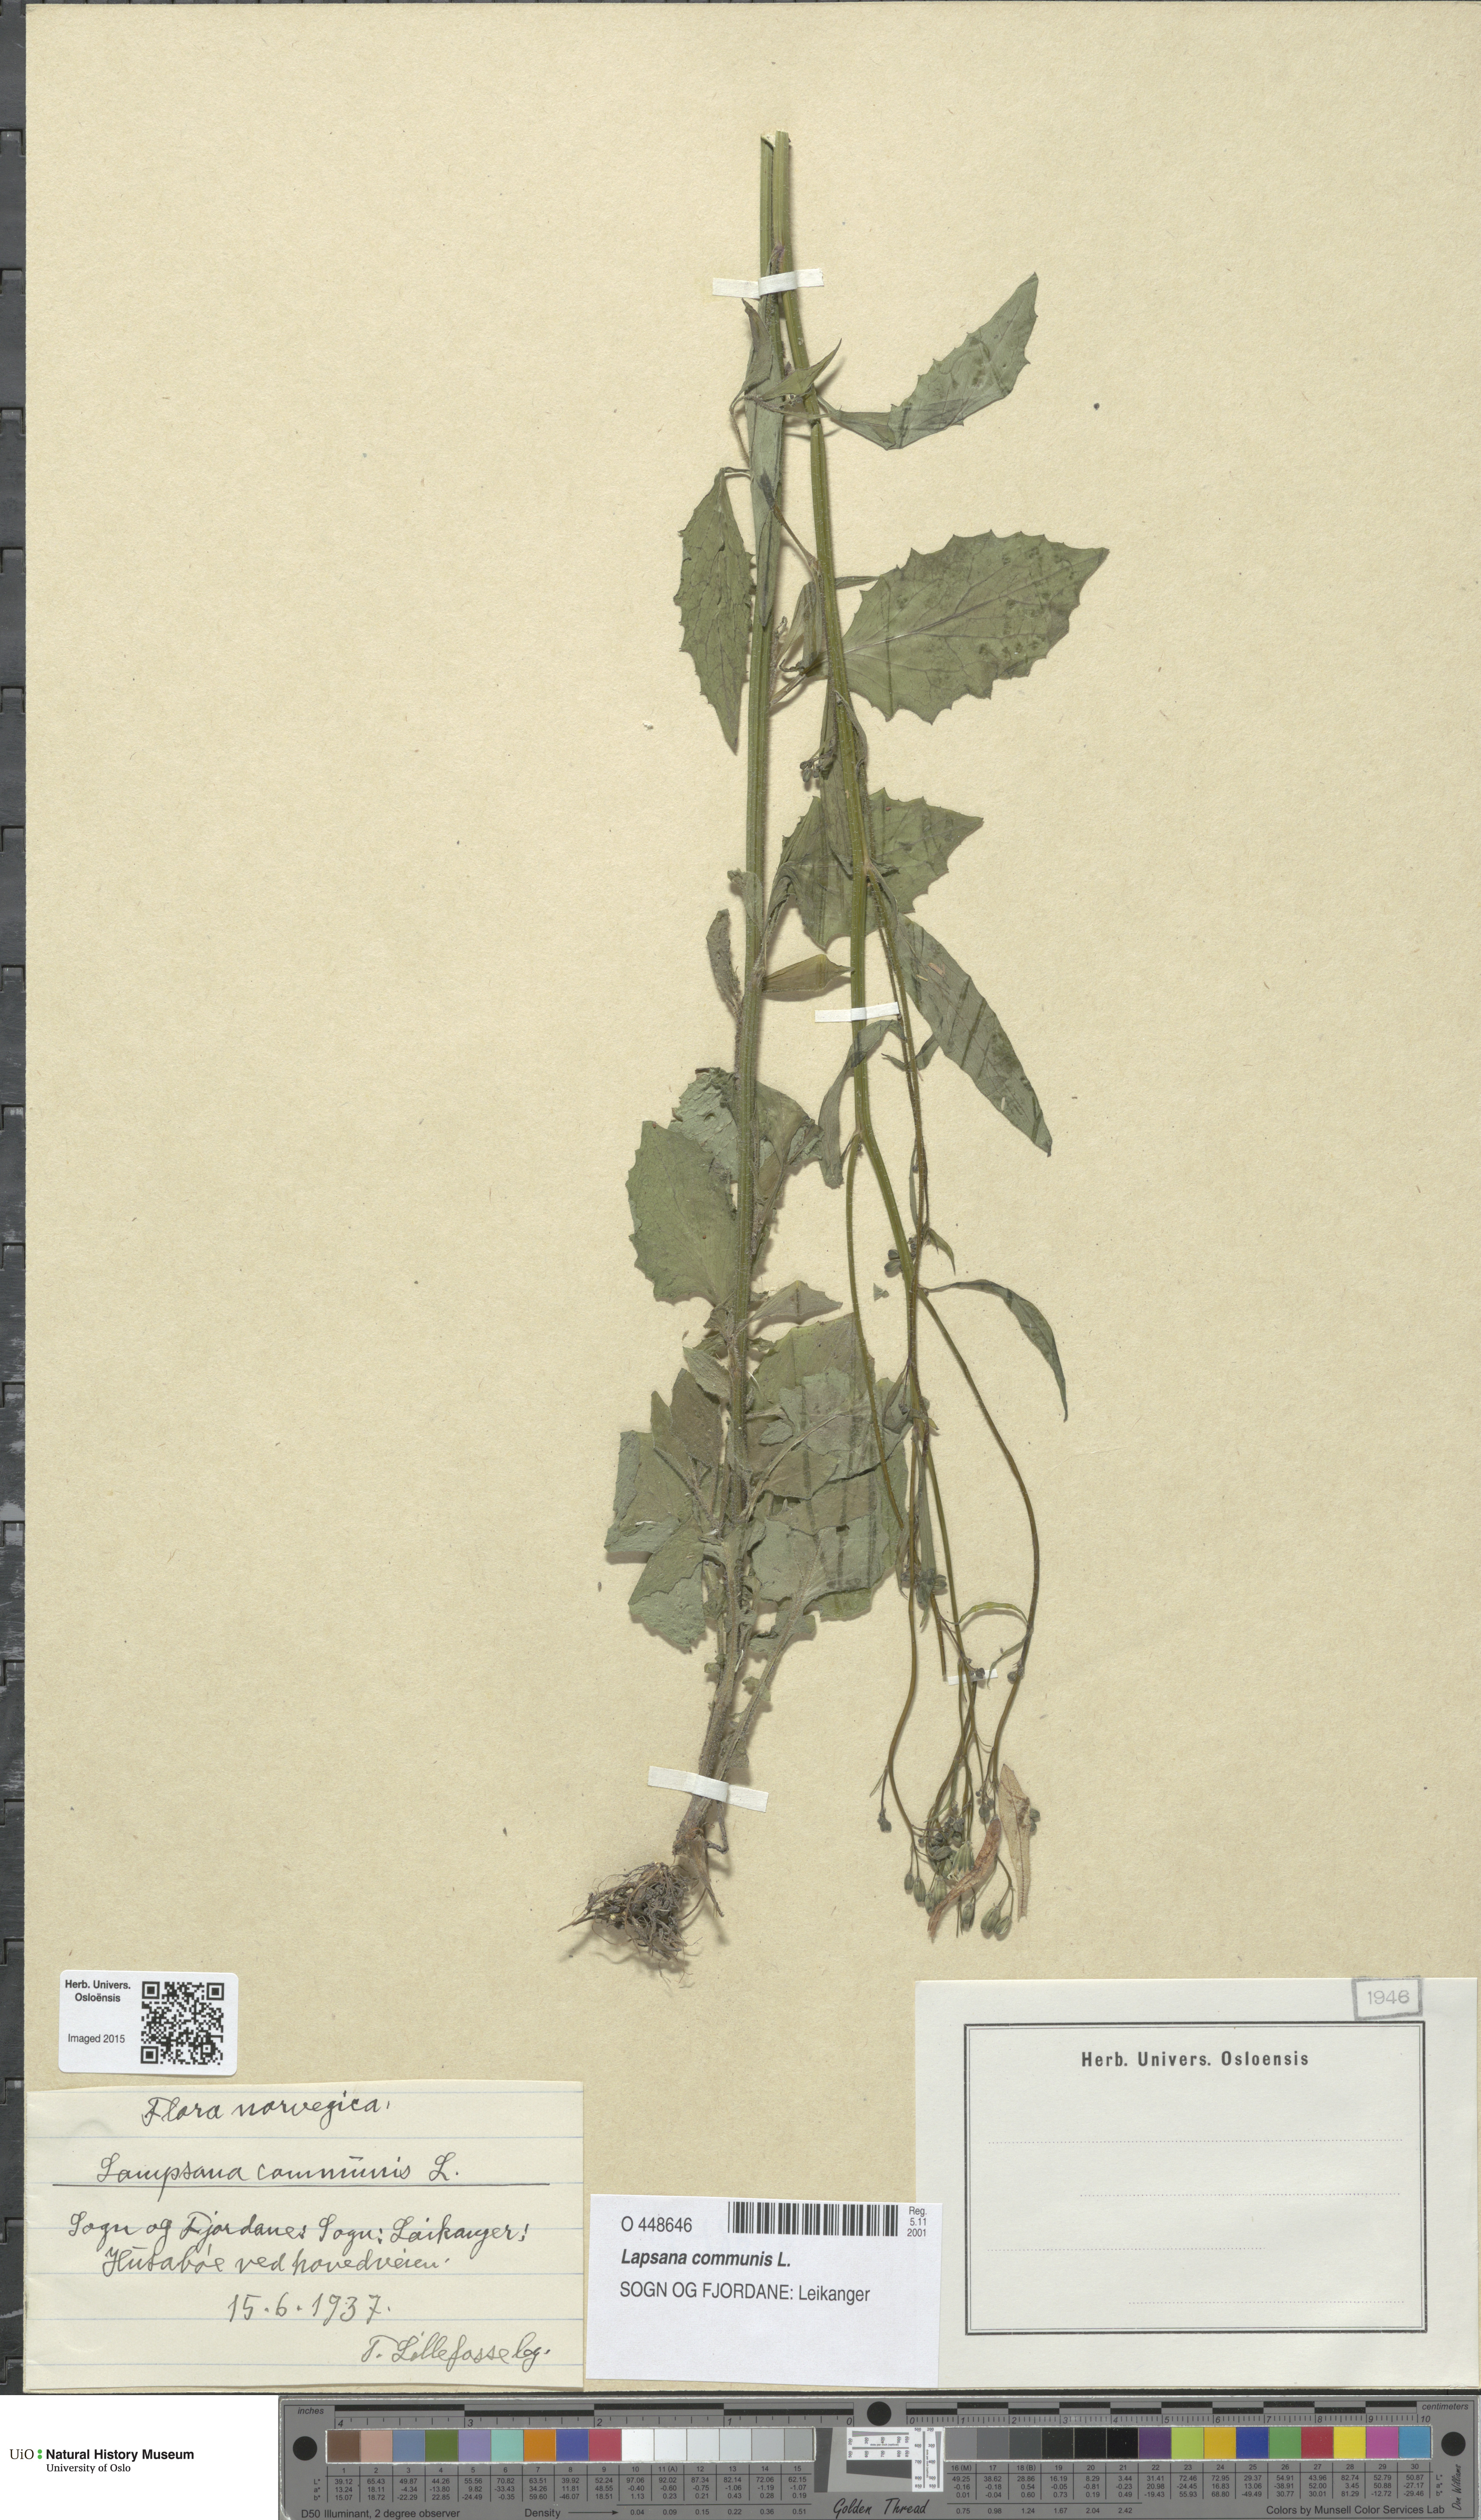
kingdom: Plantae
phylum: Tracheophyta
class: Magnoliopsida
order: Asterales
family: Asteraceae
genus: Lapsana
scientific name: Lapsana communis
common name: Nipplewort
